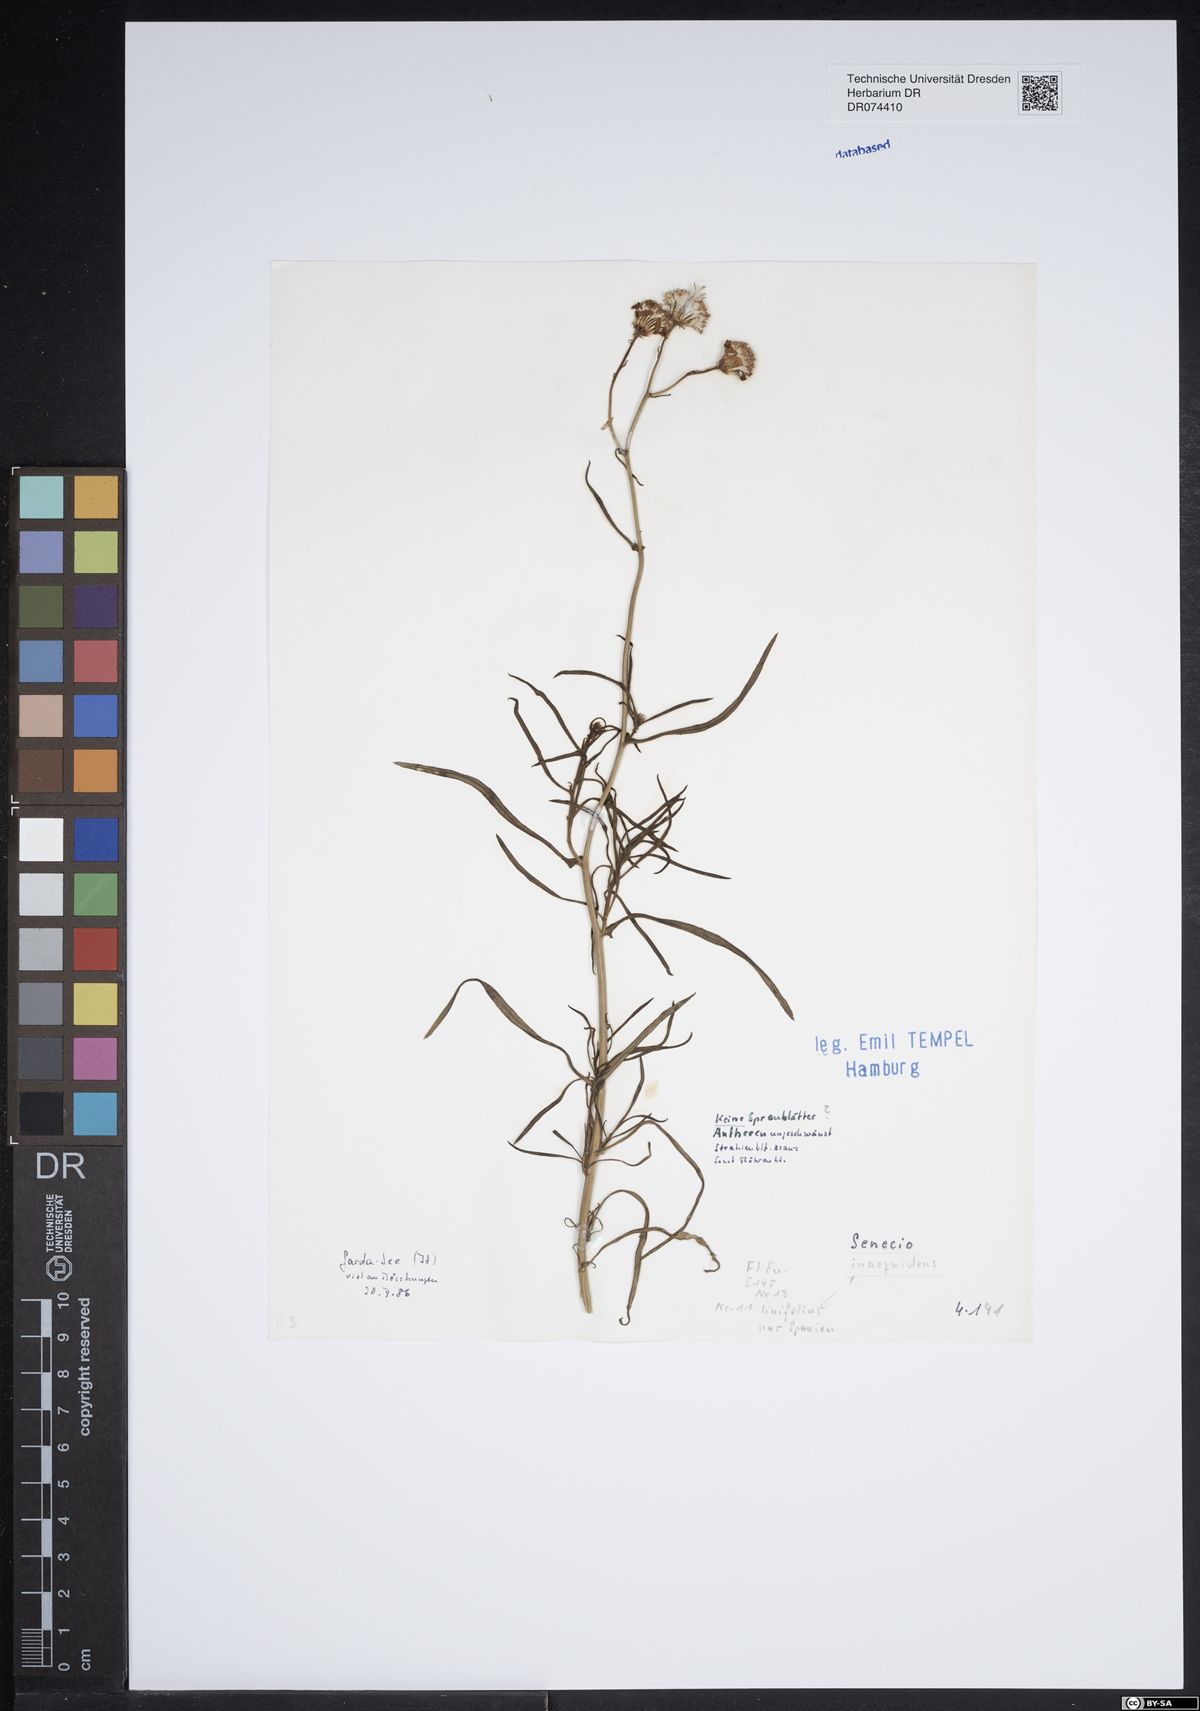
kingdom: Plantae
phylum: Tracheophyta
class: Magnoliopsida
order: Asterales
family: Asteraceae
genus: Senecio
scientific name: Senecio inaequidens
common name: Narrow-leaved ragwort
